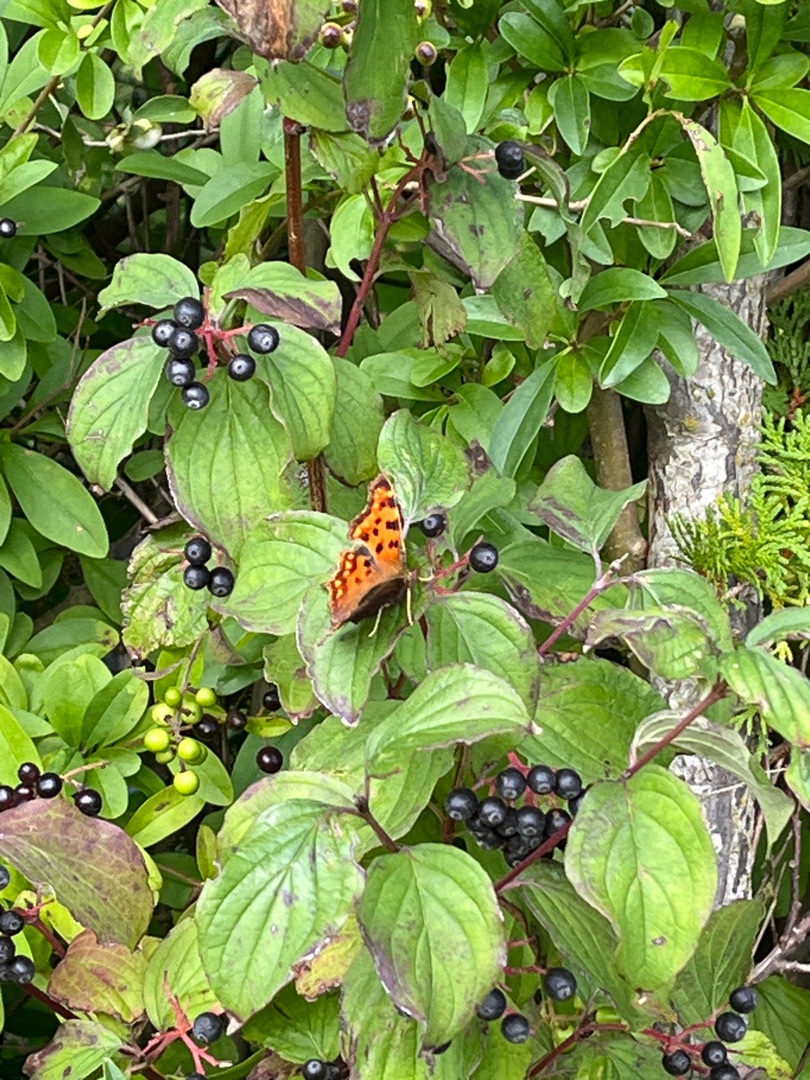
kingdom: Animalia
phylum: Arthropoda
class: Insecta
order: Lepidoptera
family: Nymphalidae
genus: Polygonia
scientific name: Polygonia c-album
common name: Det hvide C
